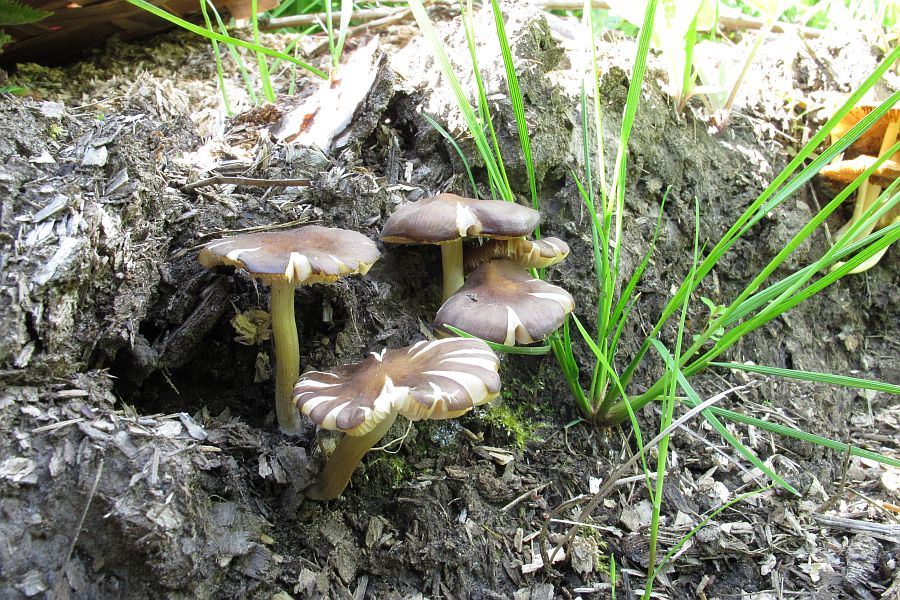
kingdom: Fungi
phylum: Basidiomycota
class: Agaricomycetes
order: Agaricales
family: Pluteaceae
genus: Pluteus
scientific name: Pluteus romellii
